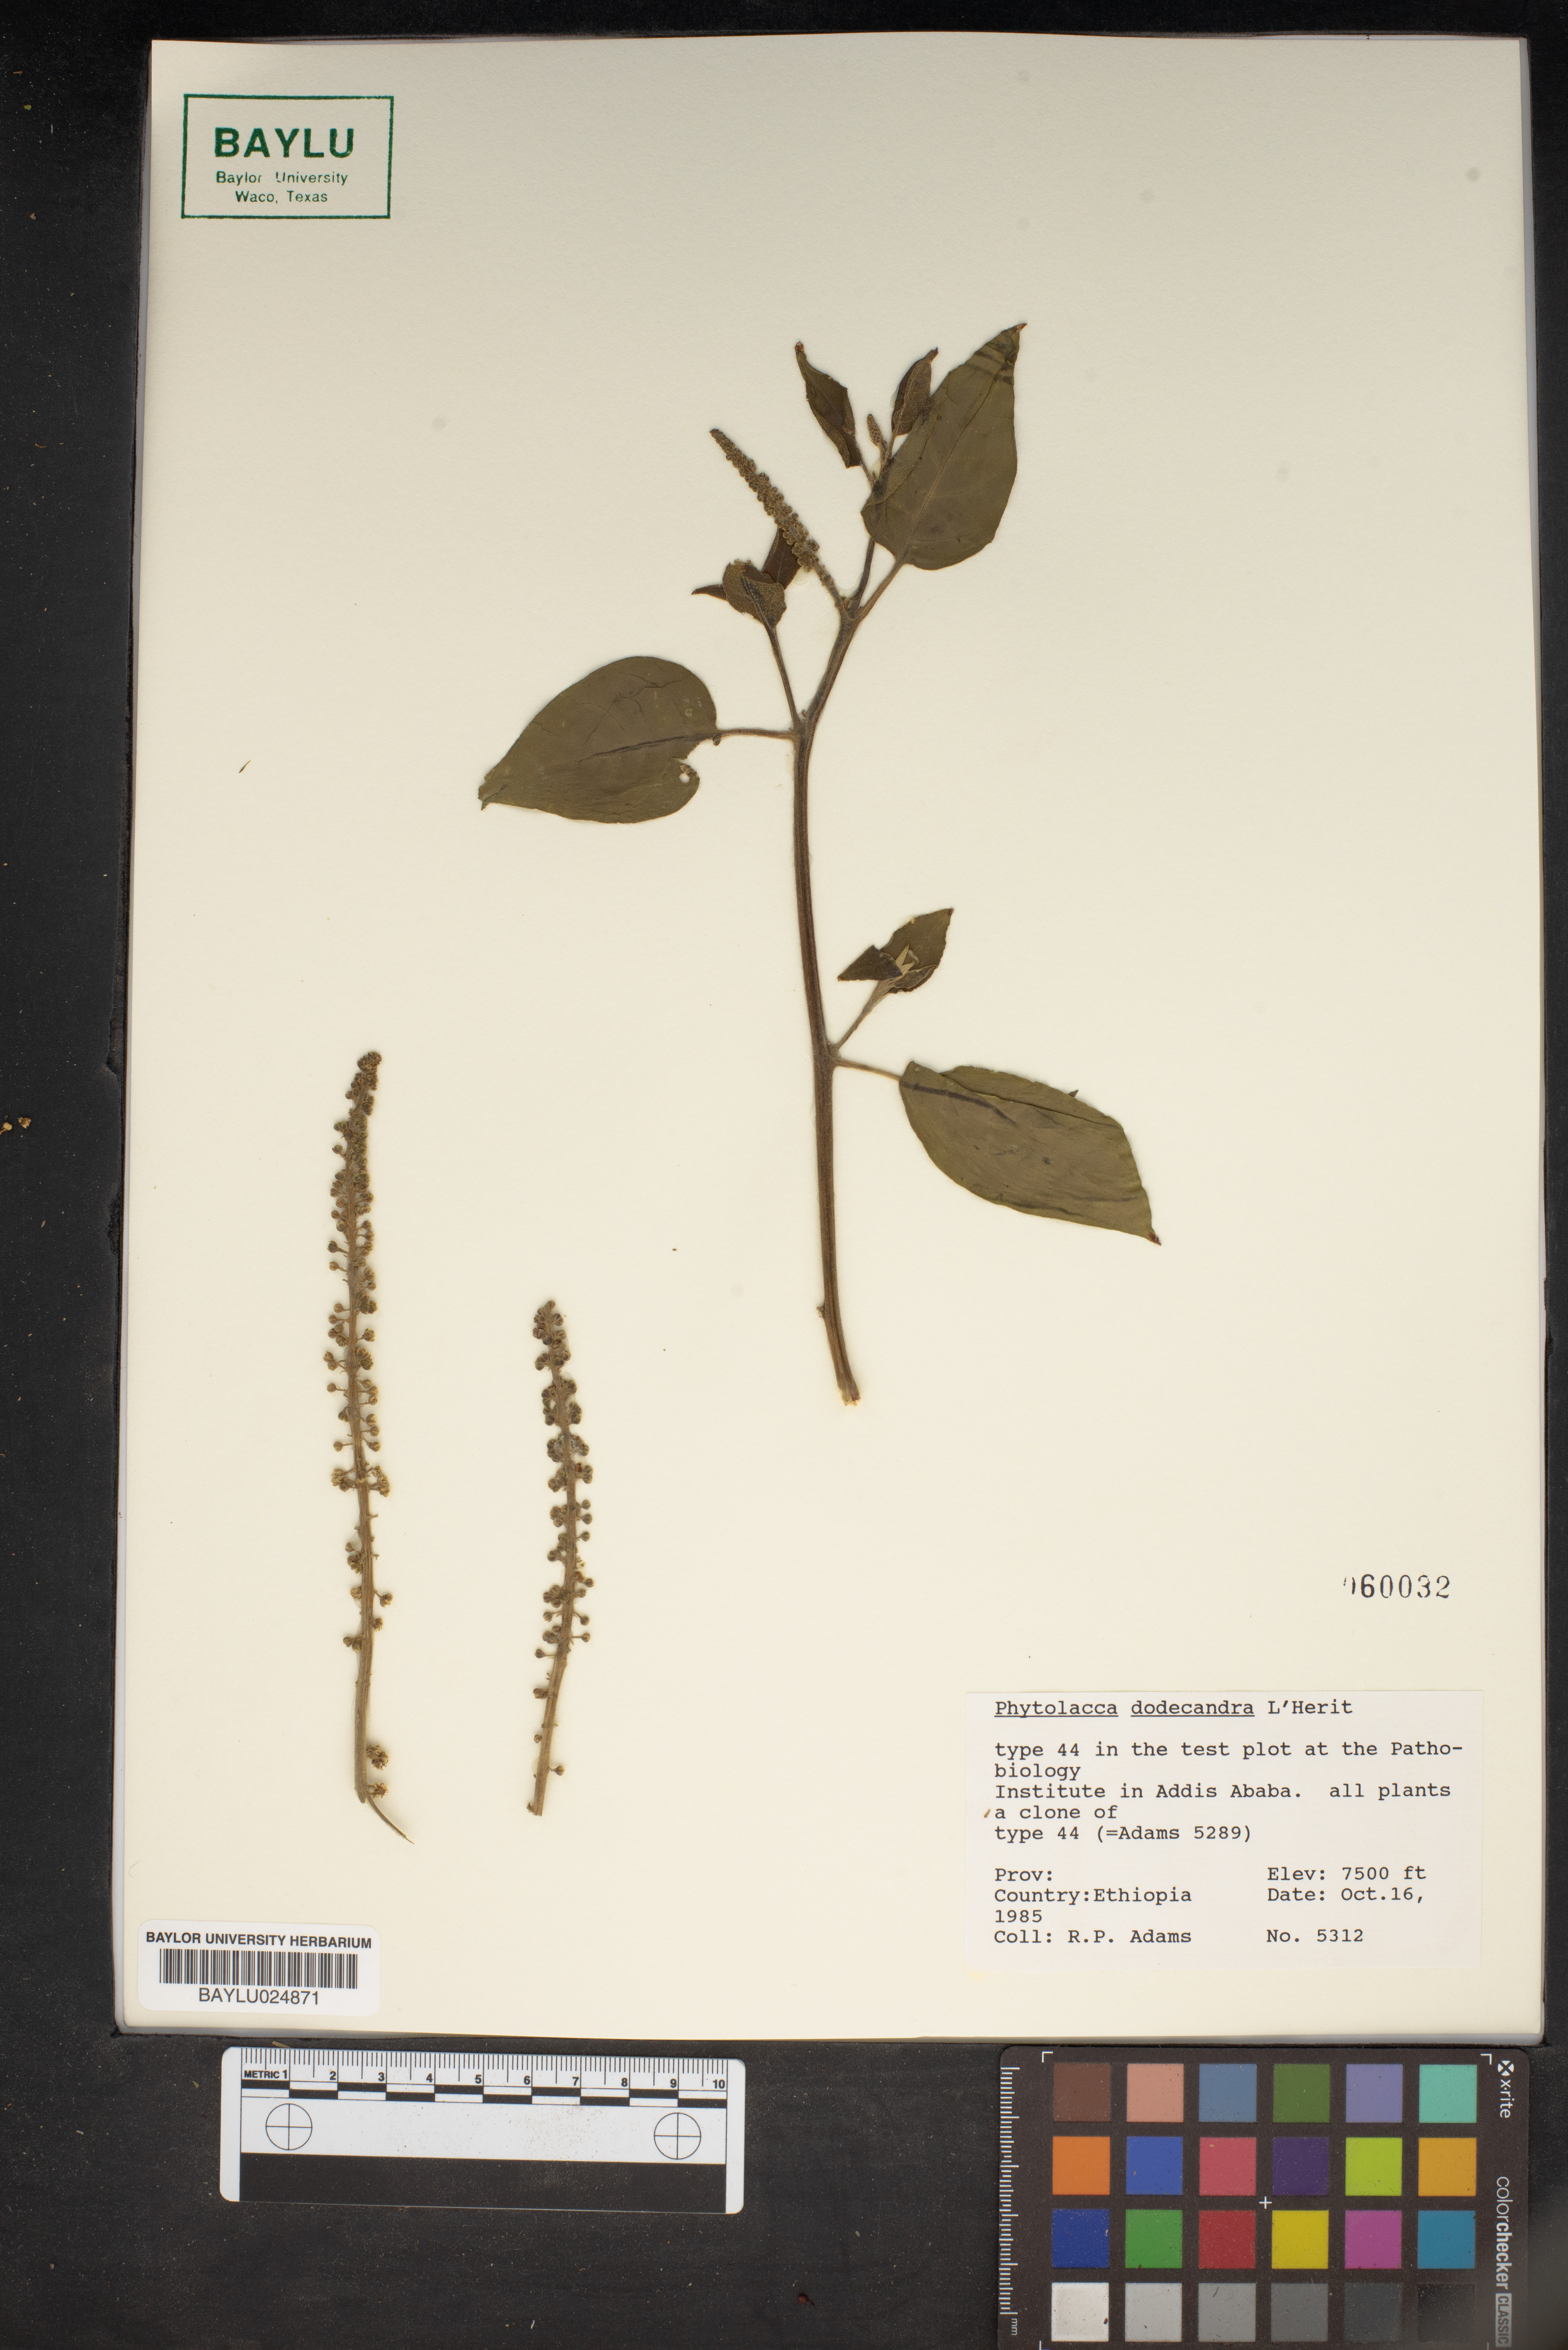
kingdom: Plantae
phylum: Tracheophyta
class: Magnoliopsida
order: Caryophyllales
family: Phytolaccaceae
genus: Phytolacca
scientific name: Phytolacca dodecandra
